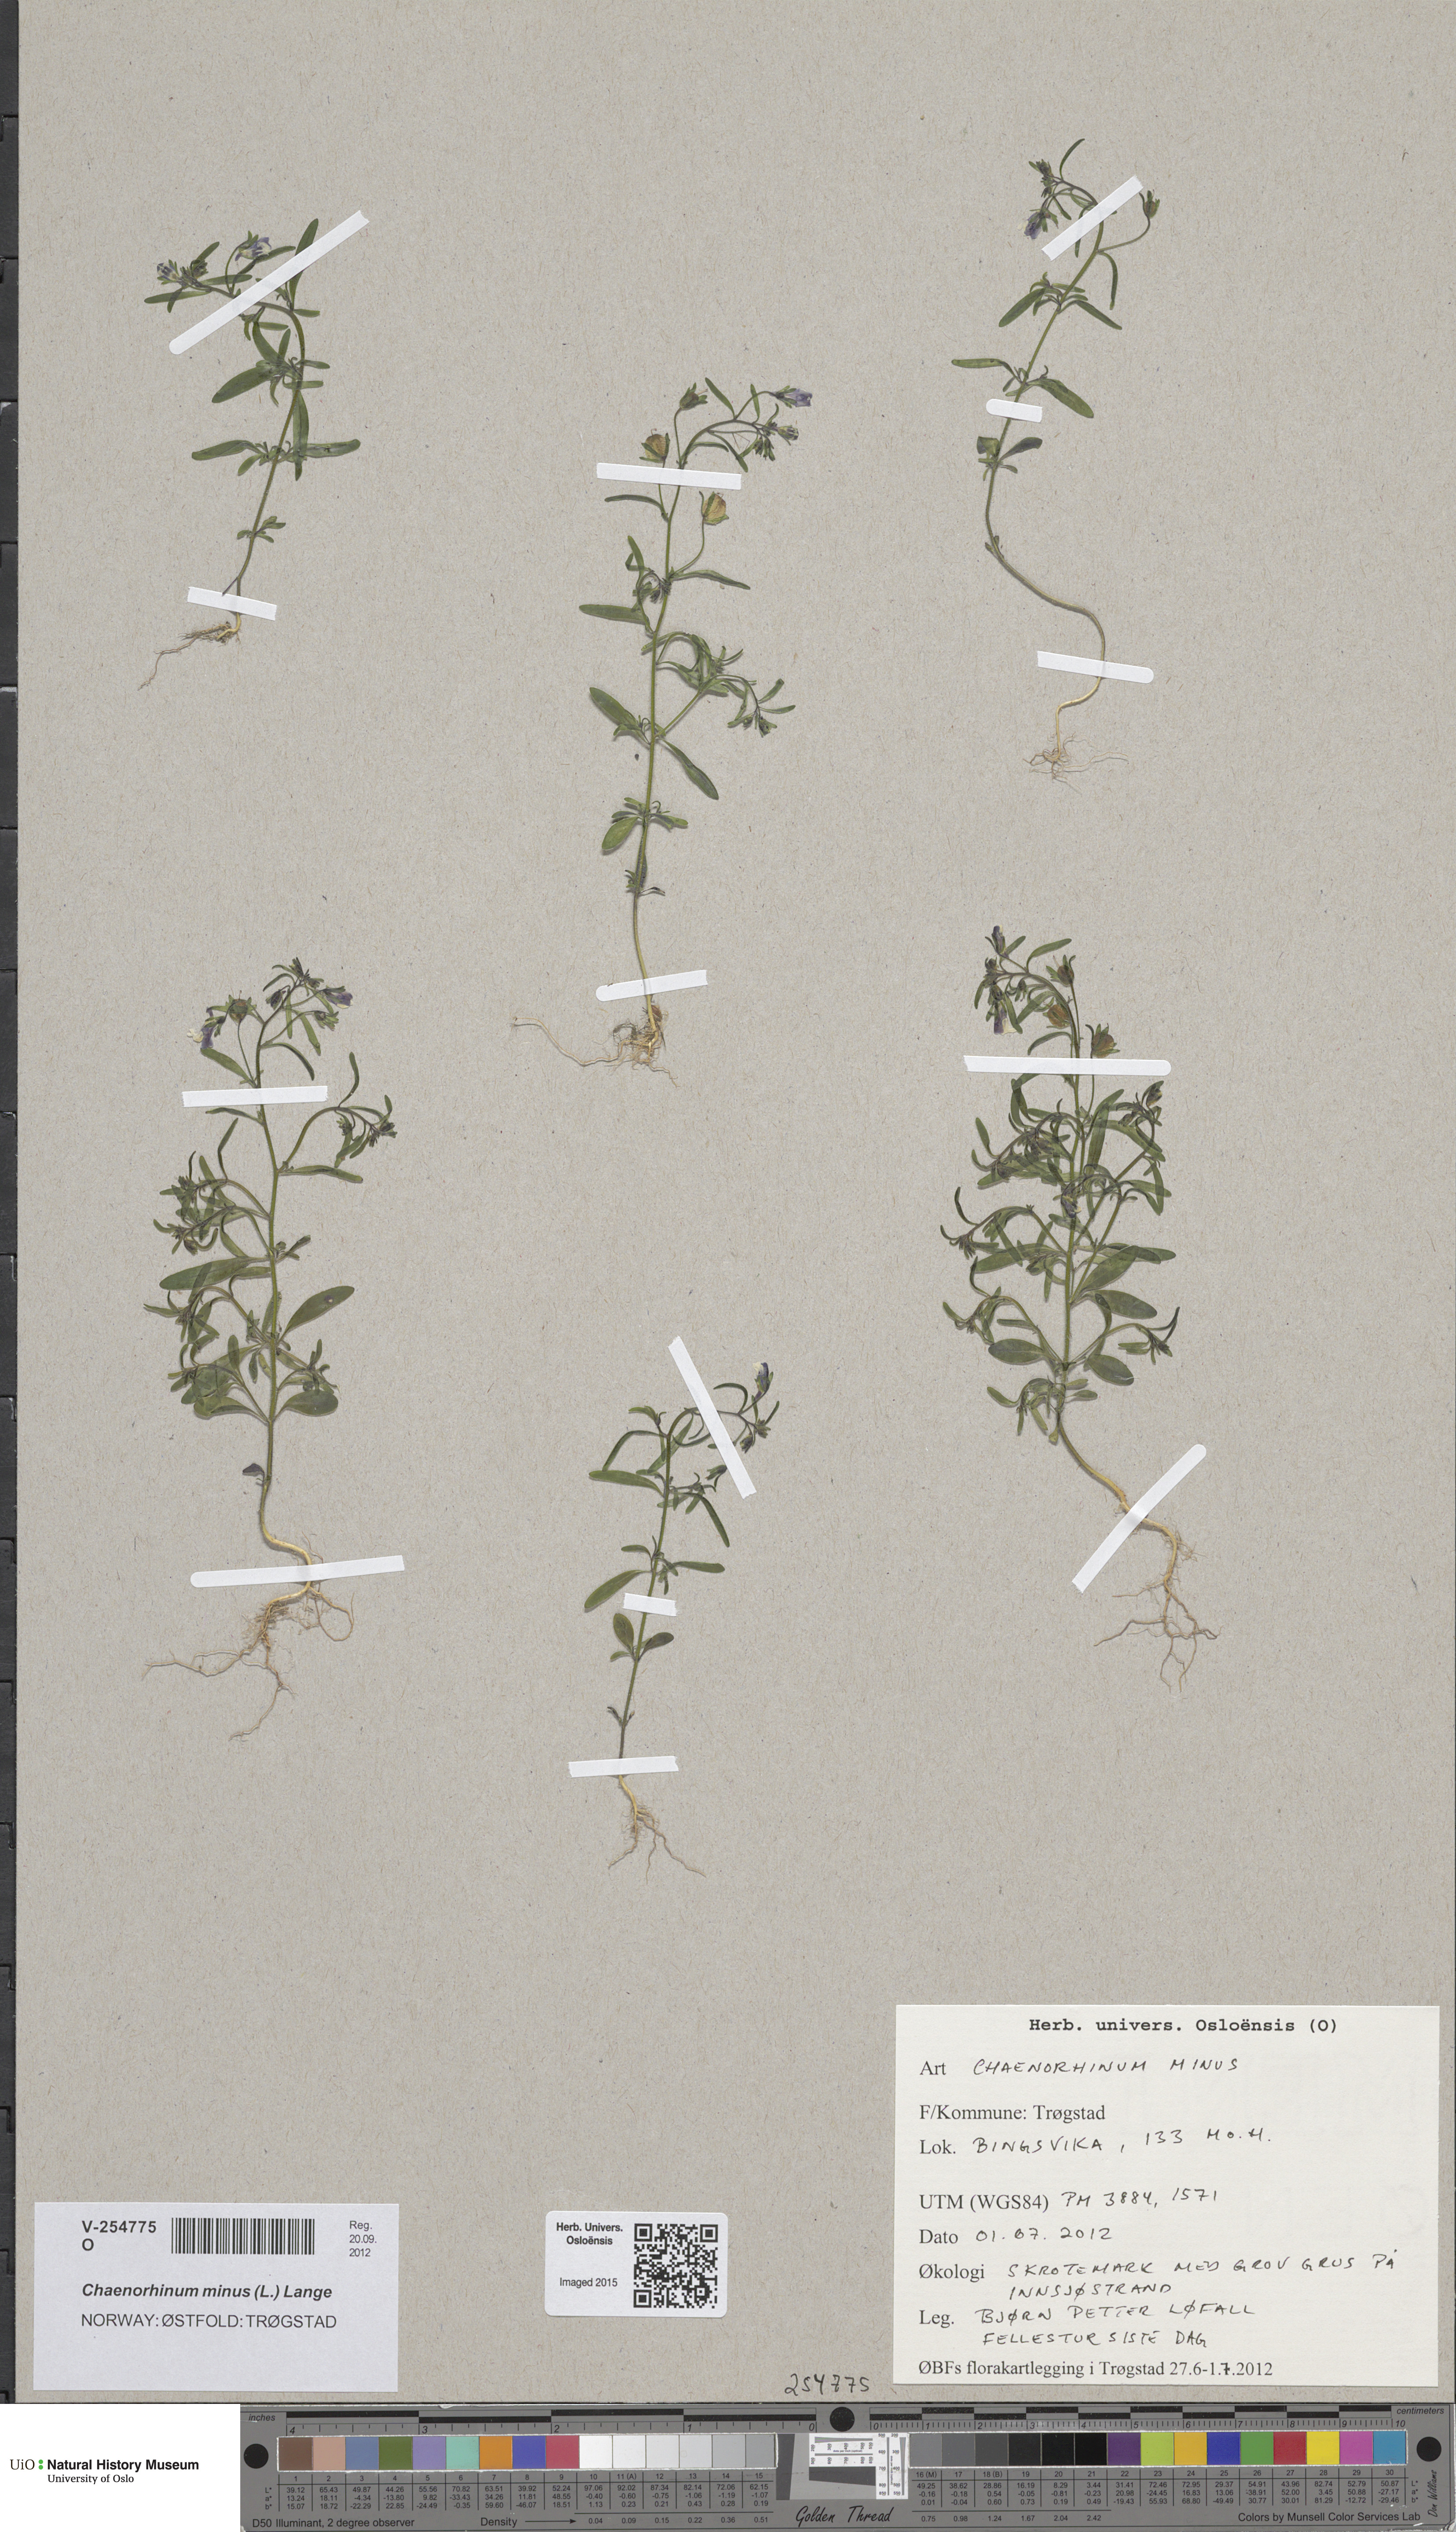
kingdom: Plantae
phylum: Tracheophyta
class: Magnoliopsida
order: Lamiales
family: Plantaginaceae
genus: Chaenorhinum
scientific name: Chaenorhinum minus
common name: Dwarf snapdragon
